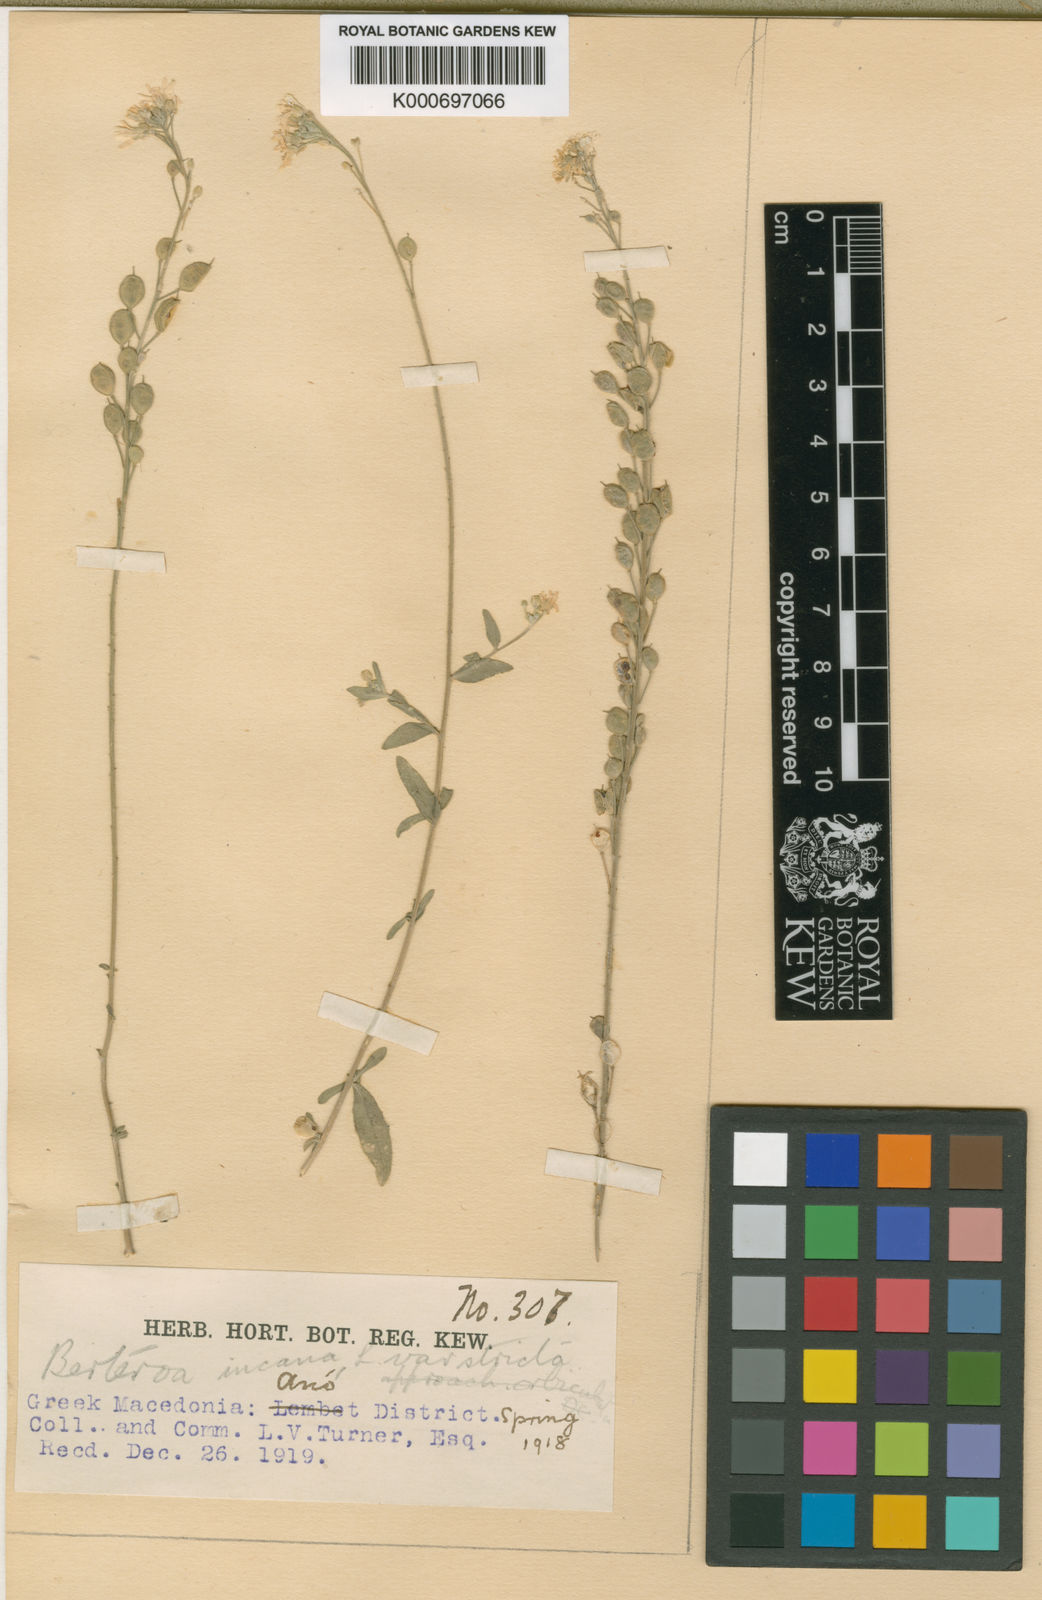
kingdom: Plantae
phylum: Tracheophyta
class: Magnoliopsida
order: Brassicales
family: Brassicaceae
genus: Berteroa
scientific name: Berteroa incana
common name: Hoary alison
